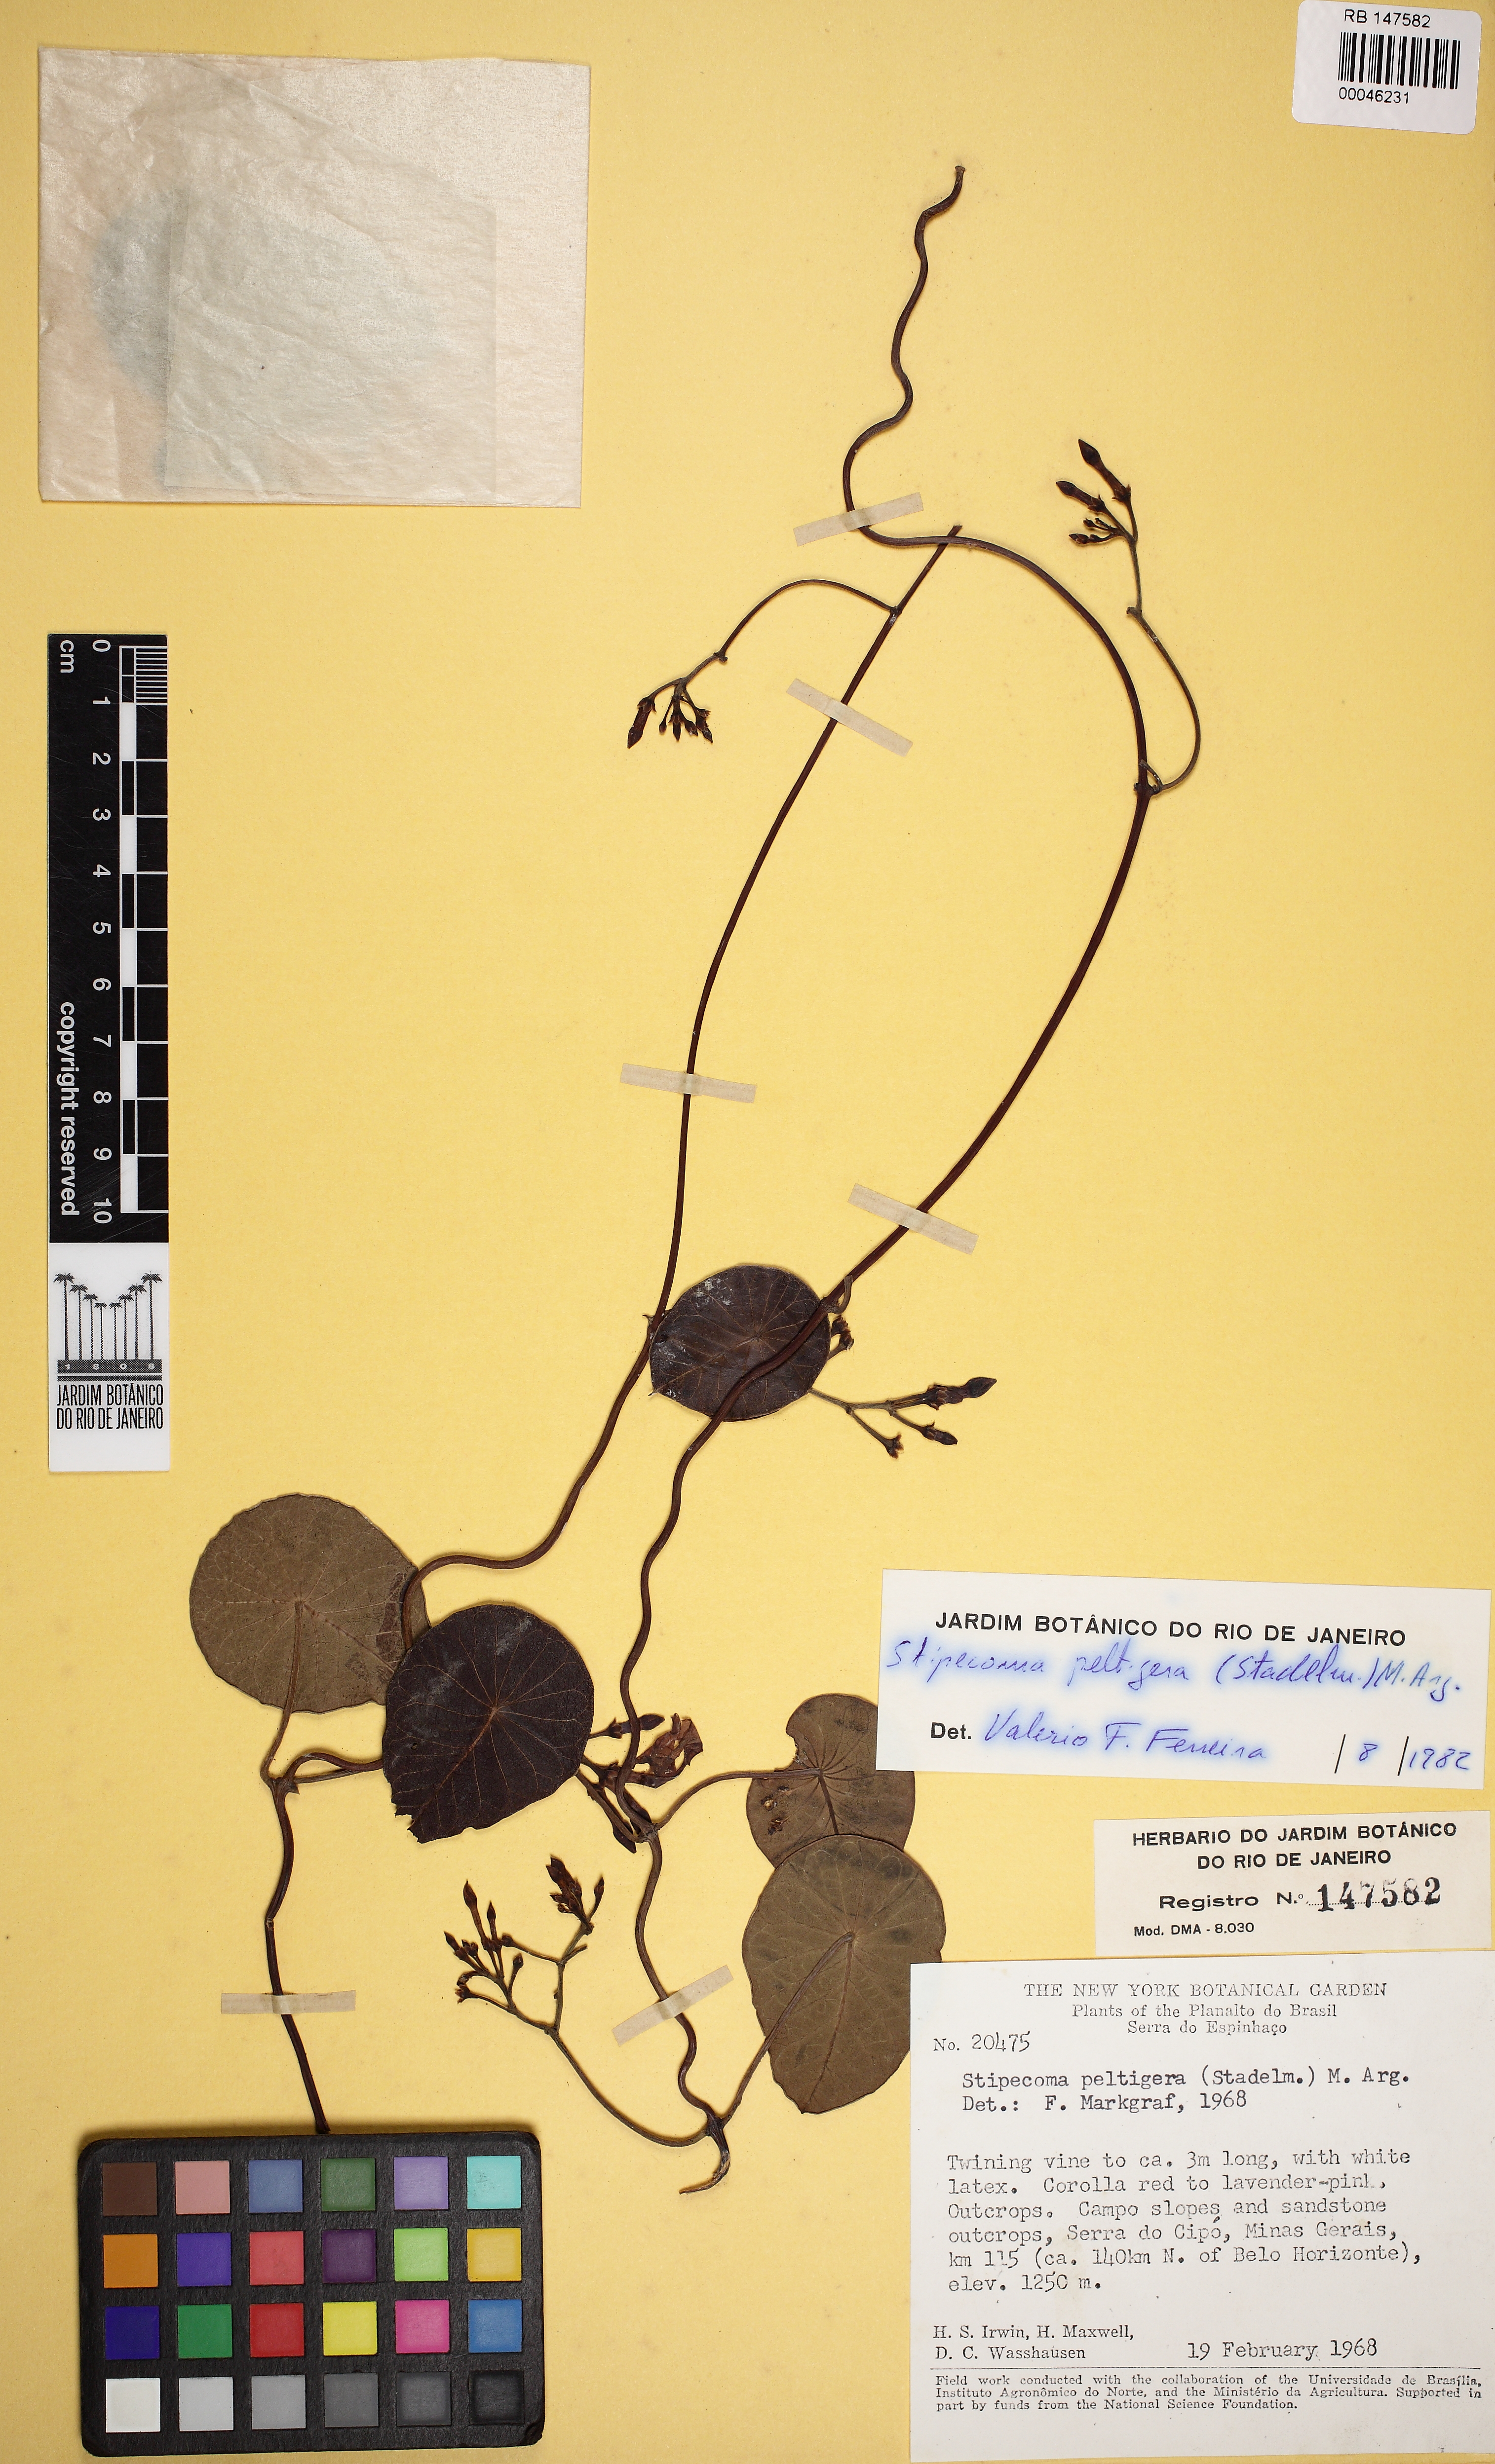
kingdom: Plantae
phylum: Tracheophyta
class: Magnoliopsida
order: Gentianales
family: Apocynaceae
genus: Stipecoma
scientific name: Stipecoma peltigera
